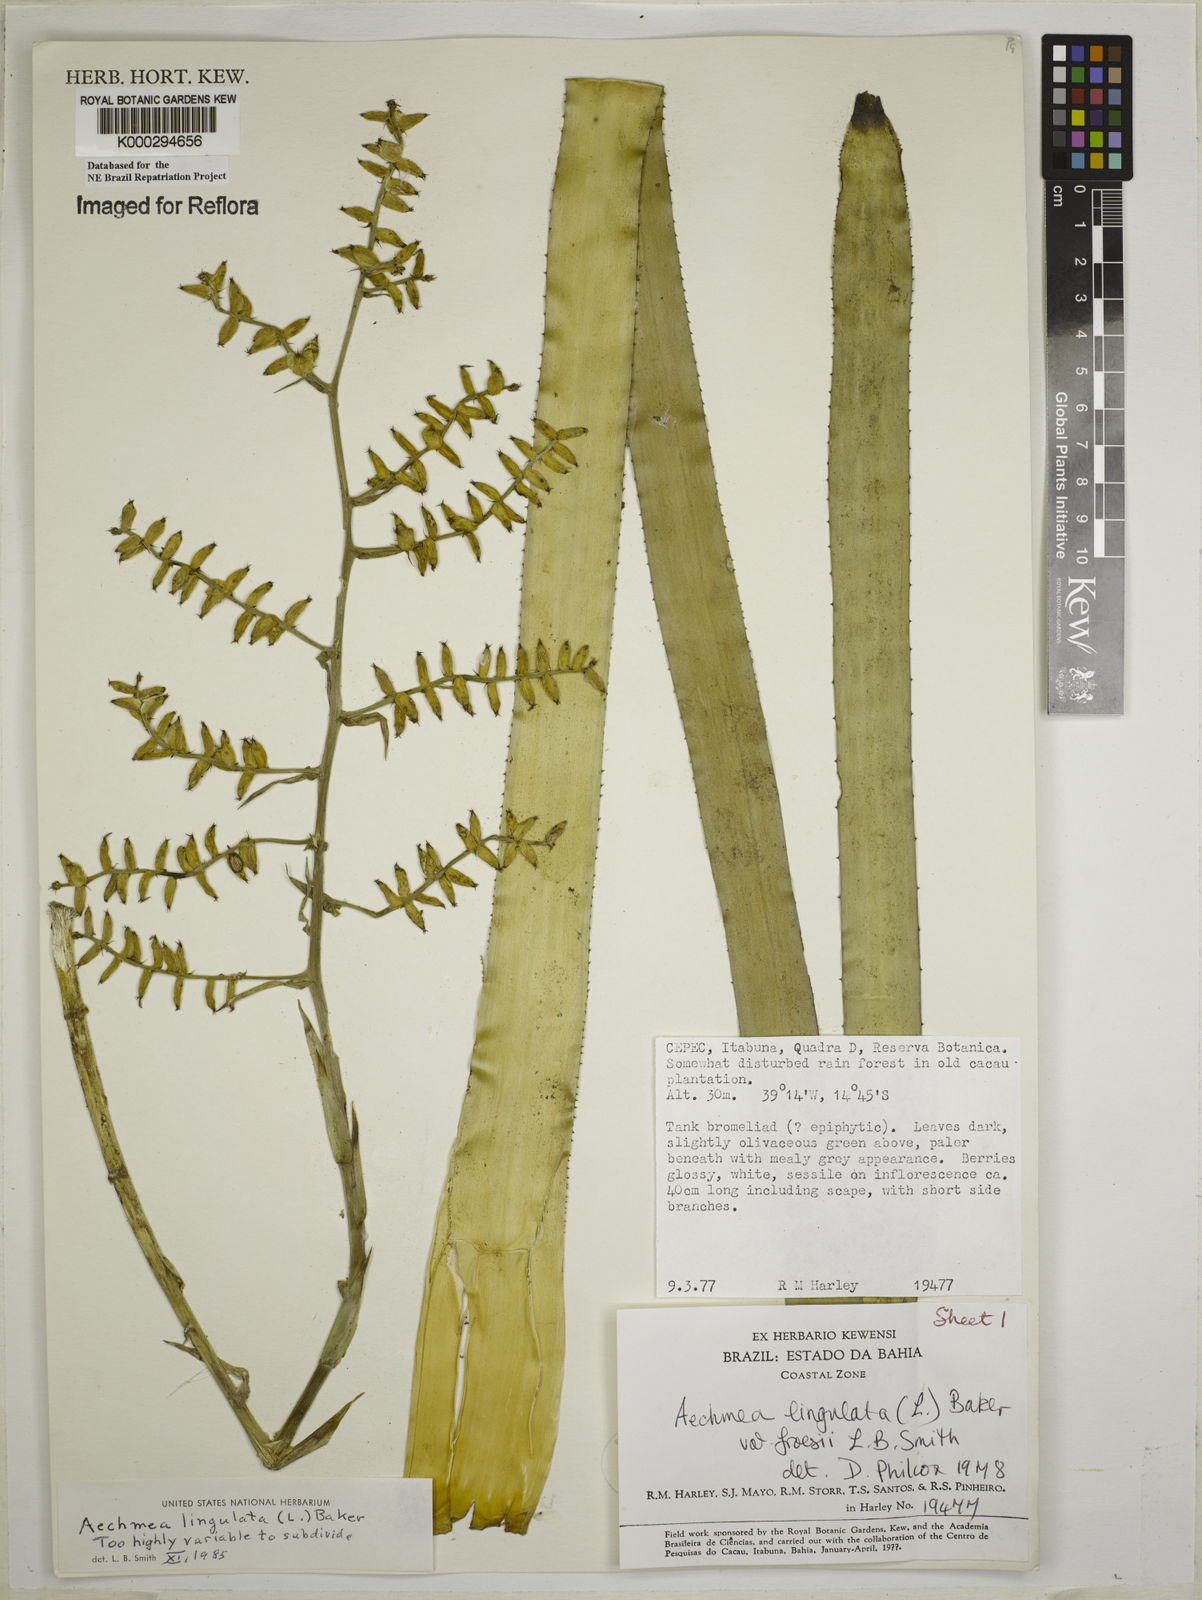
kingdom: Plantae
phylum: Tracheophyta
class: Liliopsida
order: Poales
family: Bromeliaceae
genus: Wittmackia
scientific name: Wittmackia froesii
